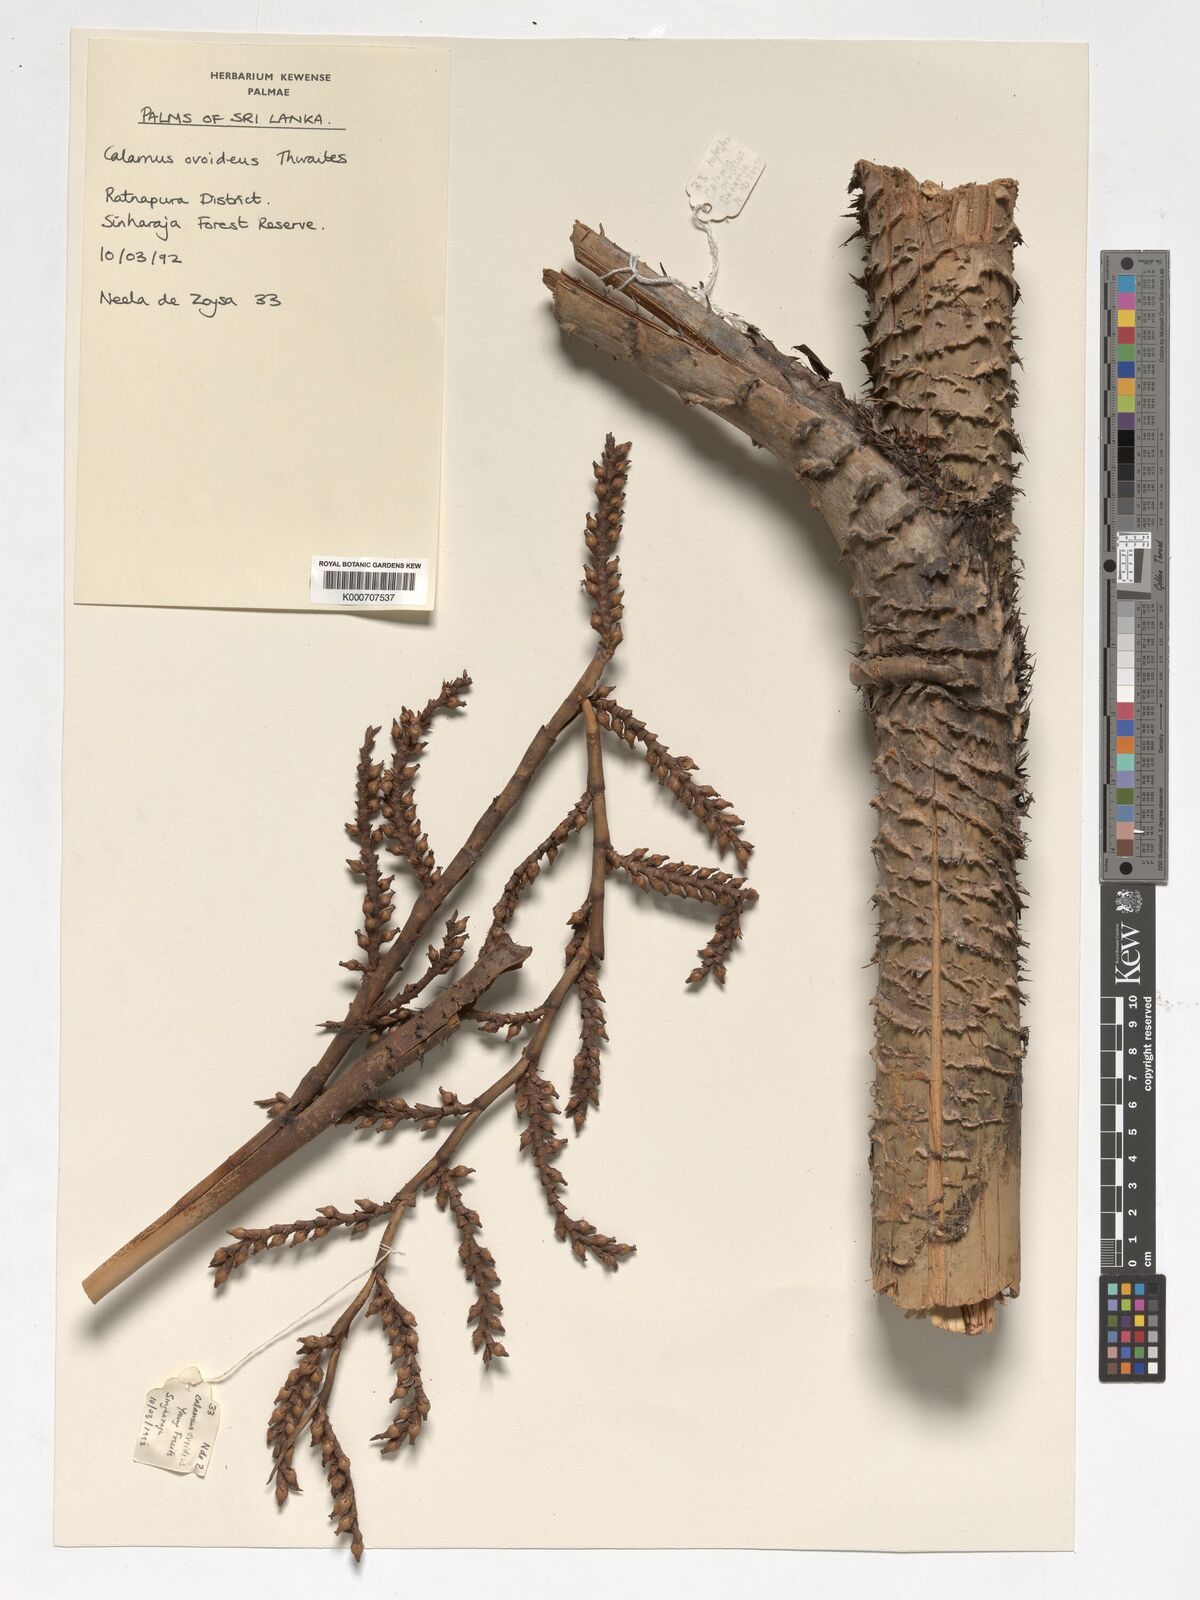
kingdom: Plantae
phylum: Tracheophyta
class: Liliopsida
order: Arecales
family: Arecaceae
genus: Calamus
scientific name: Calamus ovoideus
